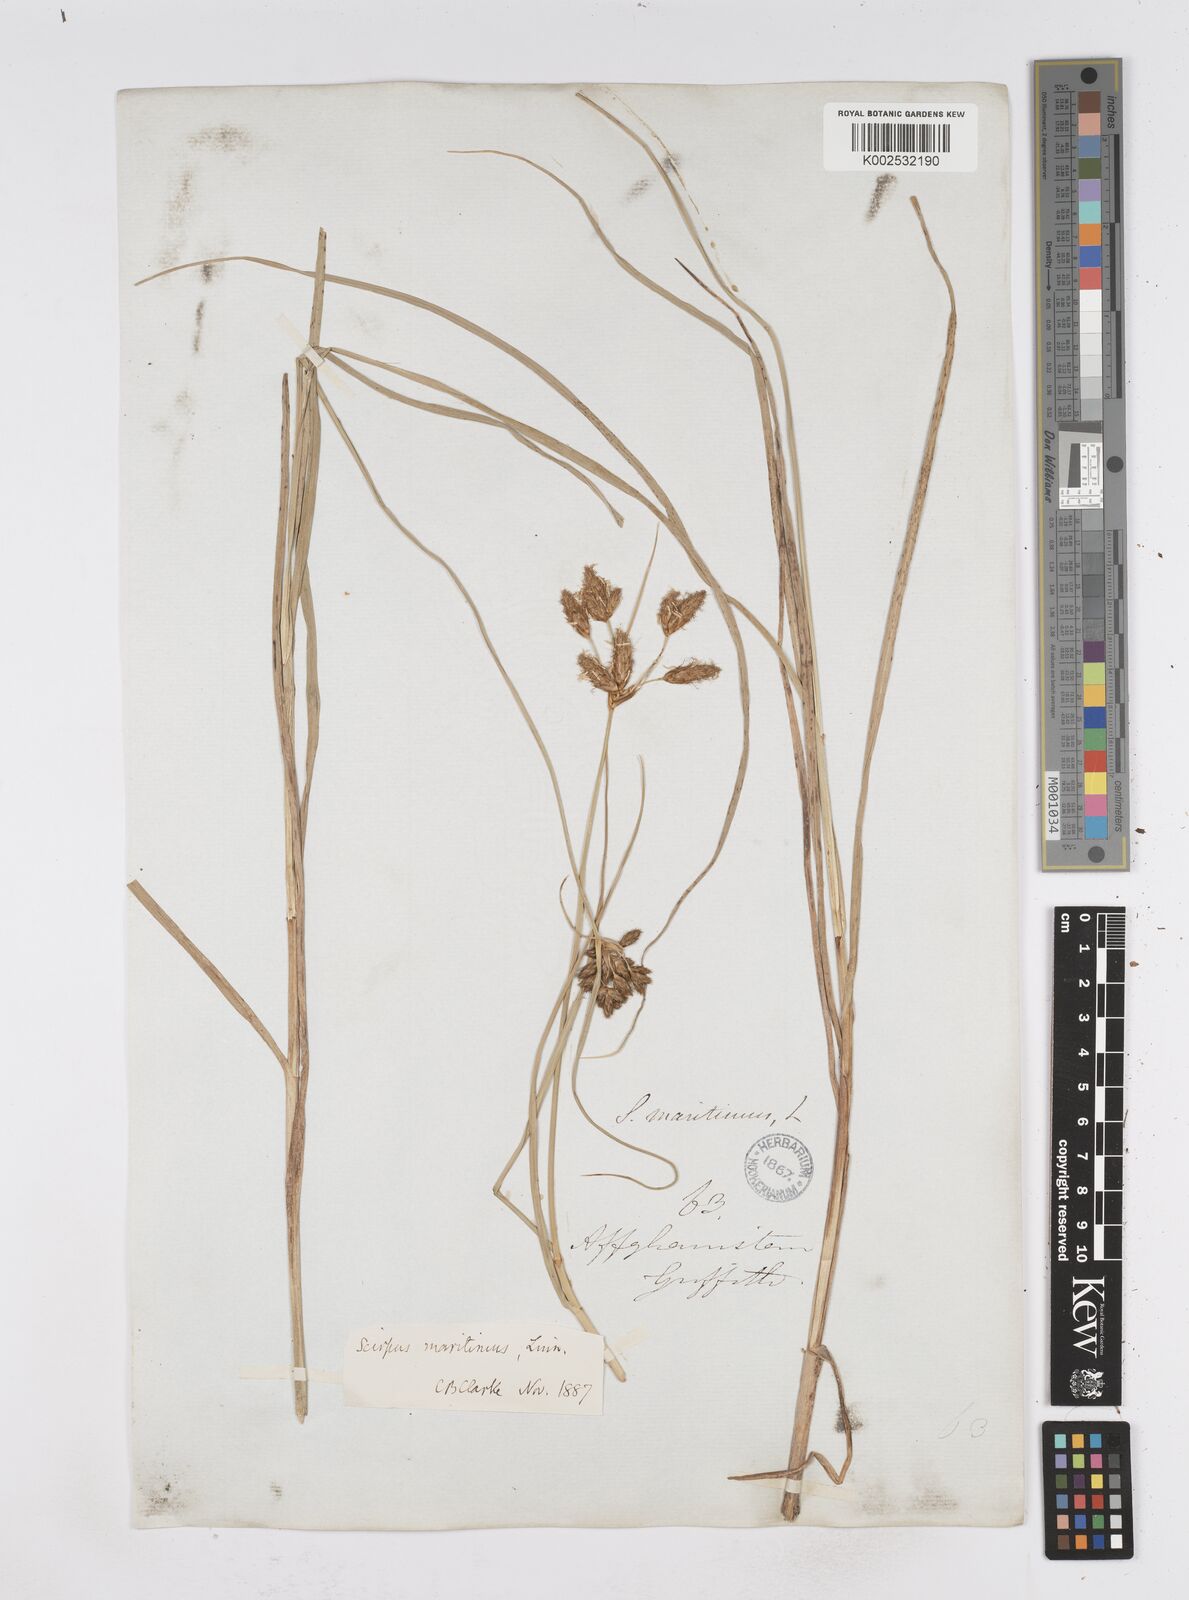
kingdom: Plantae
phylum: Tracheophyta
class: Liliopsida
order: Poales
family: Cyperaceae
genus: Bolboschoenus
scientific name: Bolboschoenus maritimus
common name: Sea club-rush
